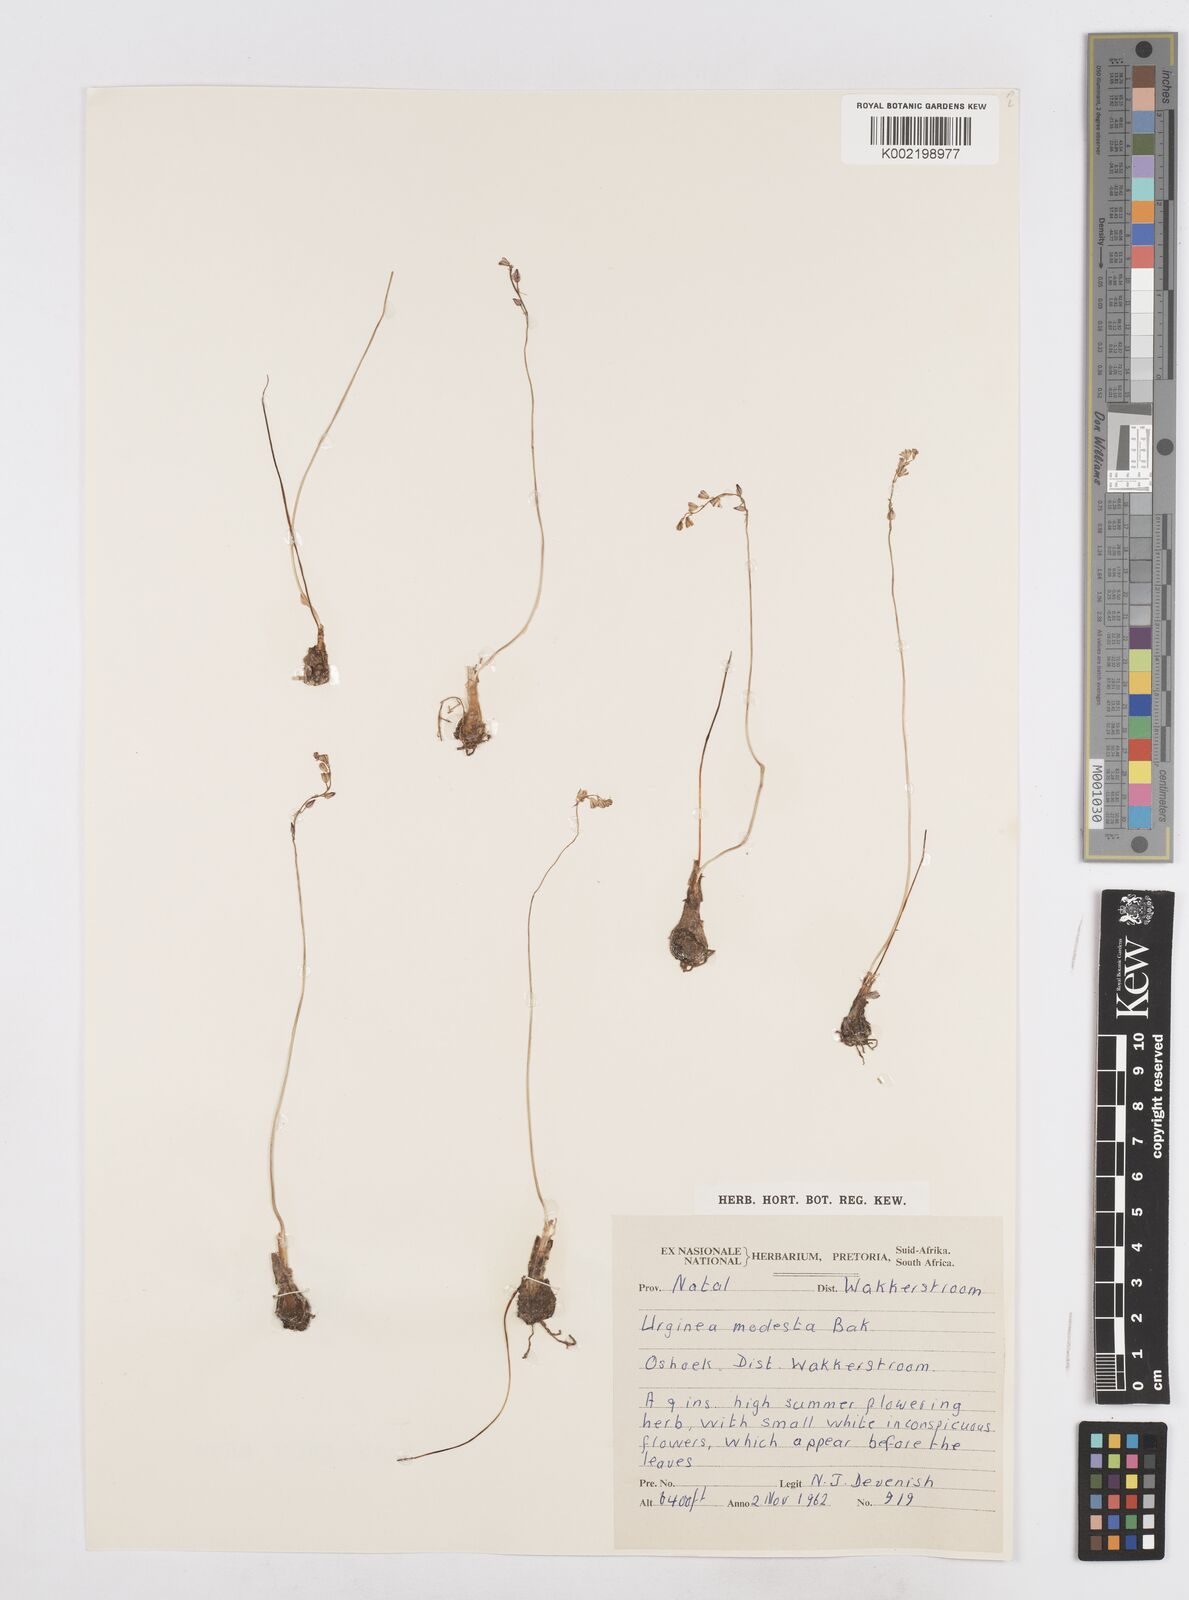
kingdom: Plantae
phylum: Tracheophyta
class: Liliopsida
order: Asparagales
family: Asparagaceae
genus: Drimia
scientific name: Drimia modesta
